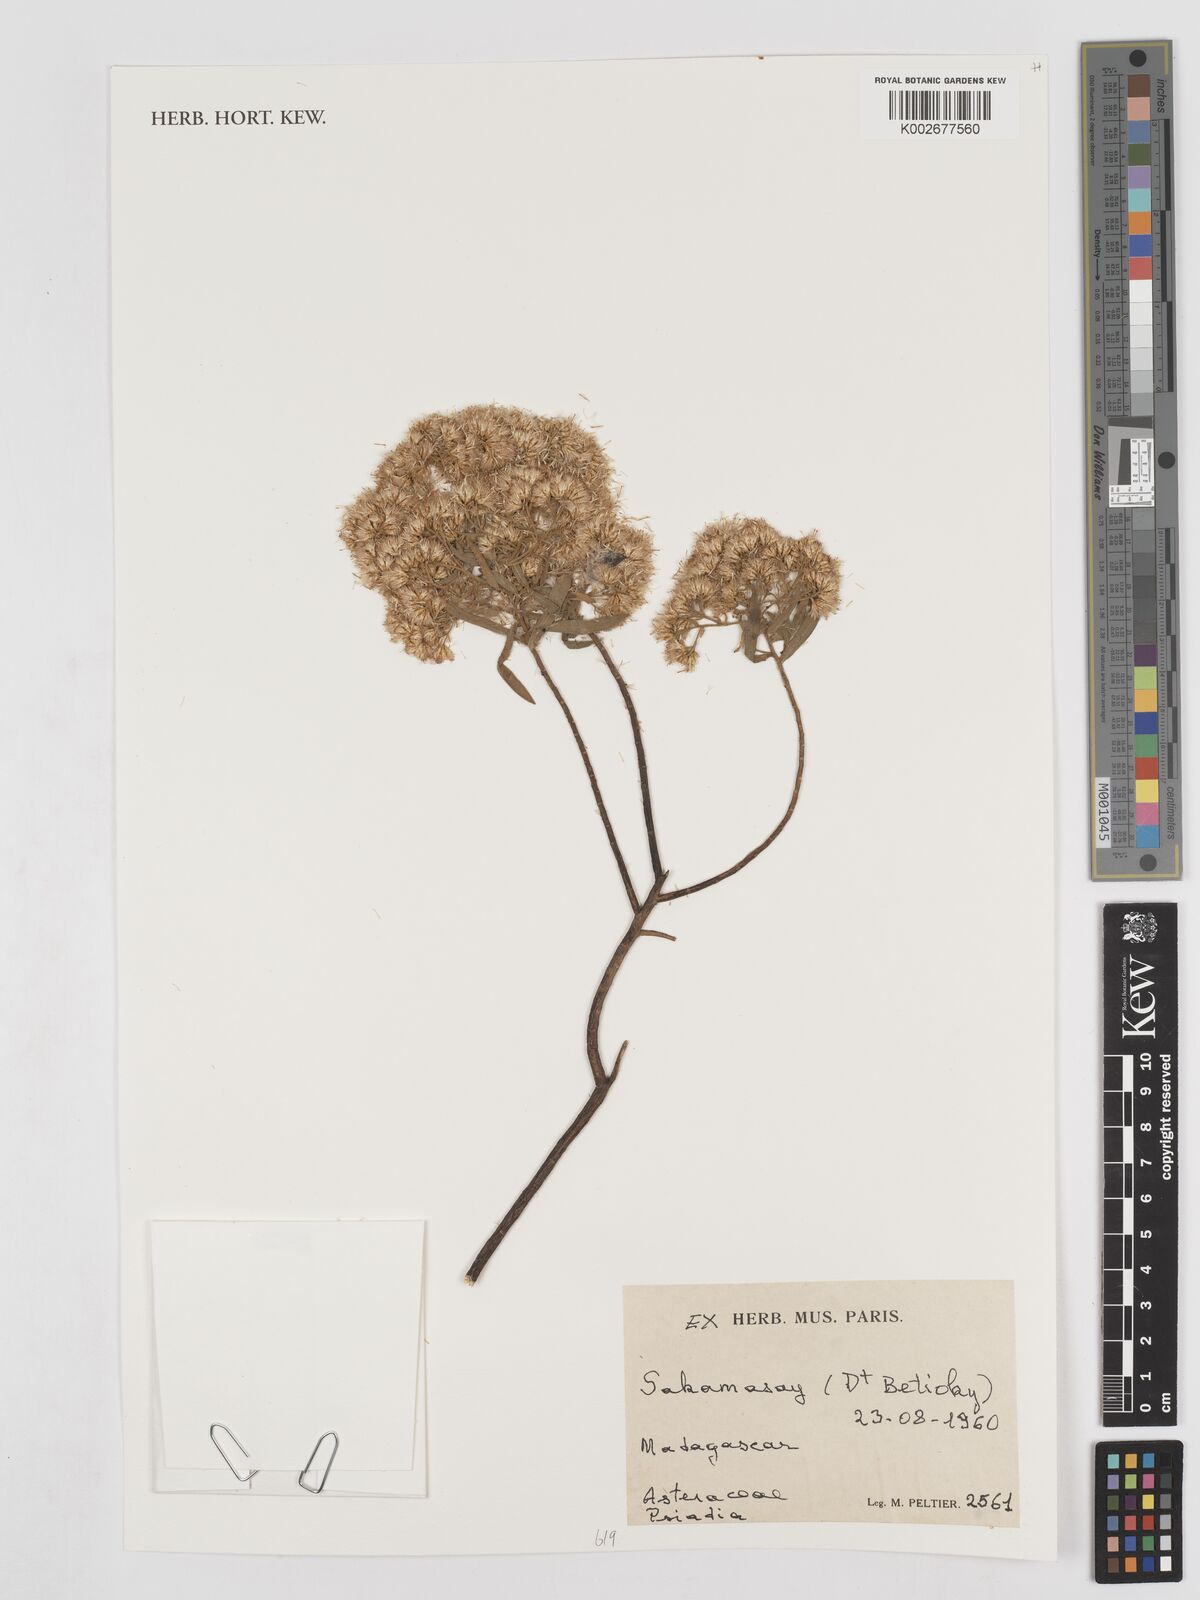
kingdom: Plantae
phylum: Tracheophyta
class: Magnoliopsida
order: Asterales
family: Asteraceae
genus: Psiadia
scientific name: Psiadia
